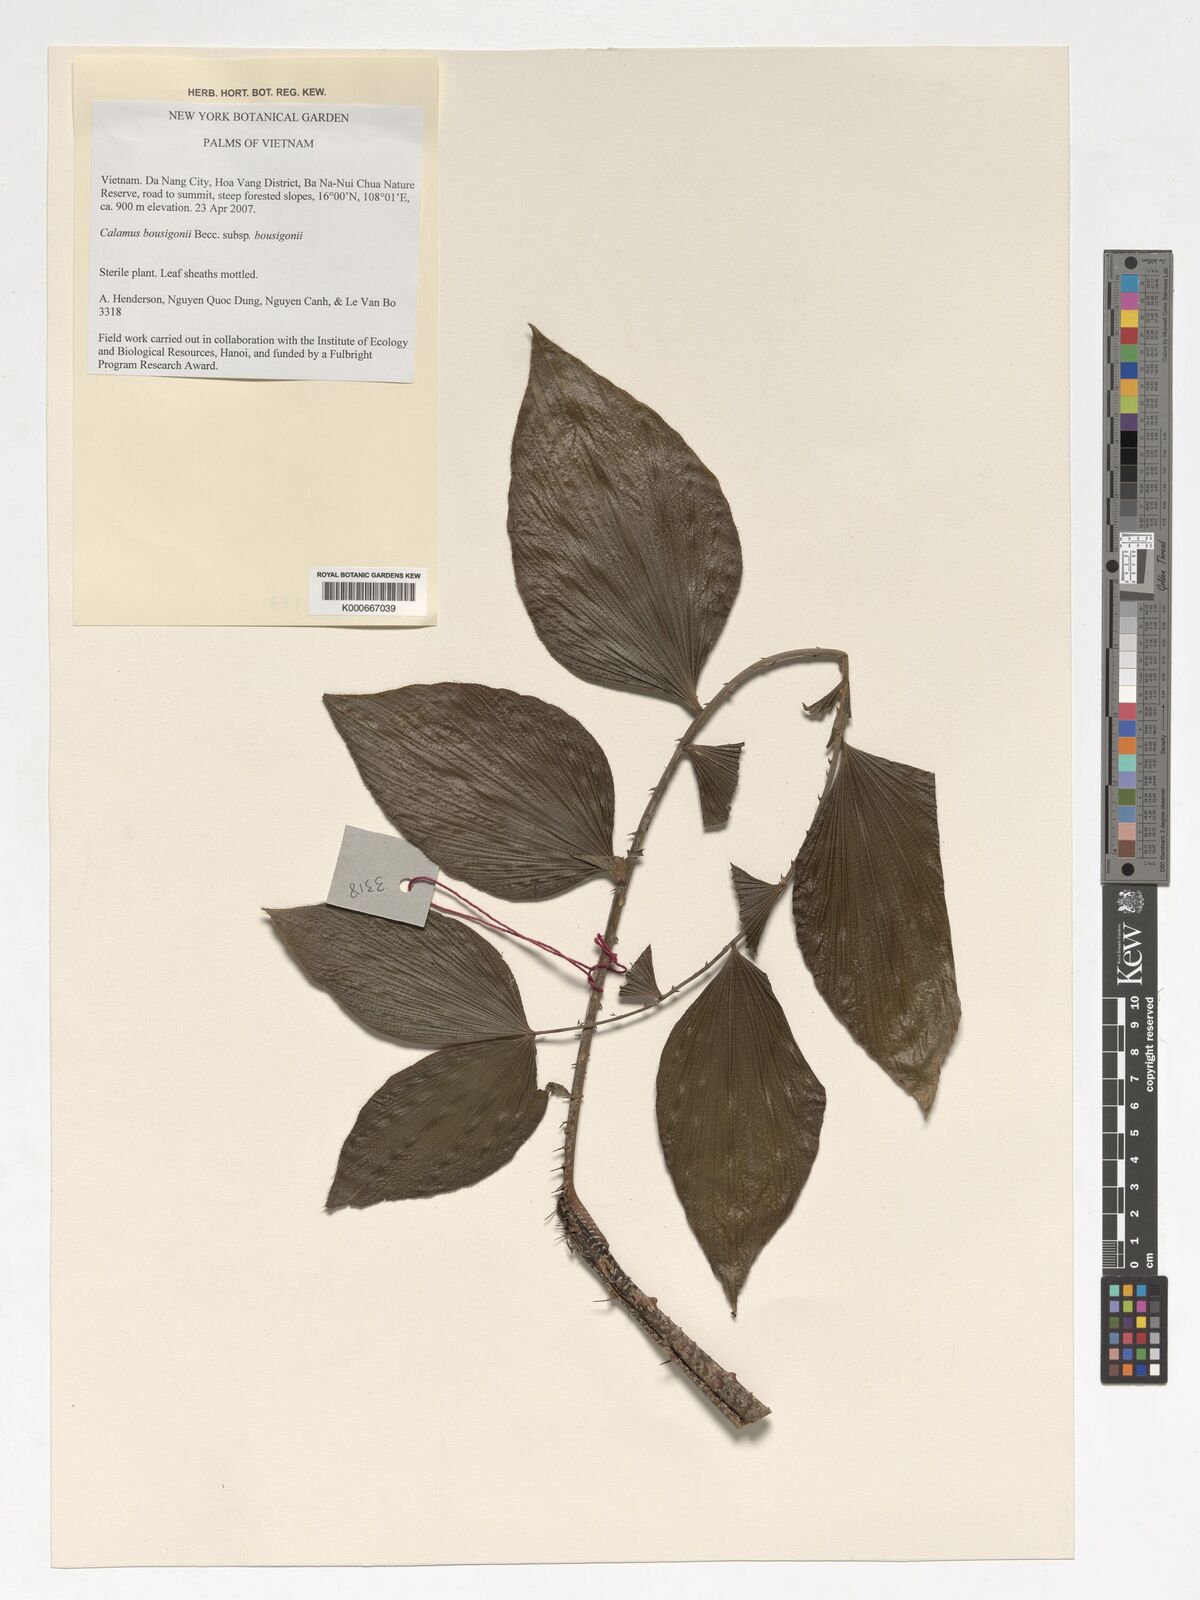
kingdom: Plantae
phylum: Tracheophyta
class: Liliopsida
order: Arecales
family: Arecaceae
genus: Calamus
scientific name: Calamus bousigonii
